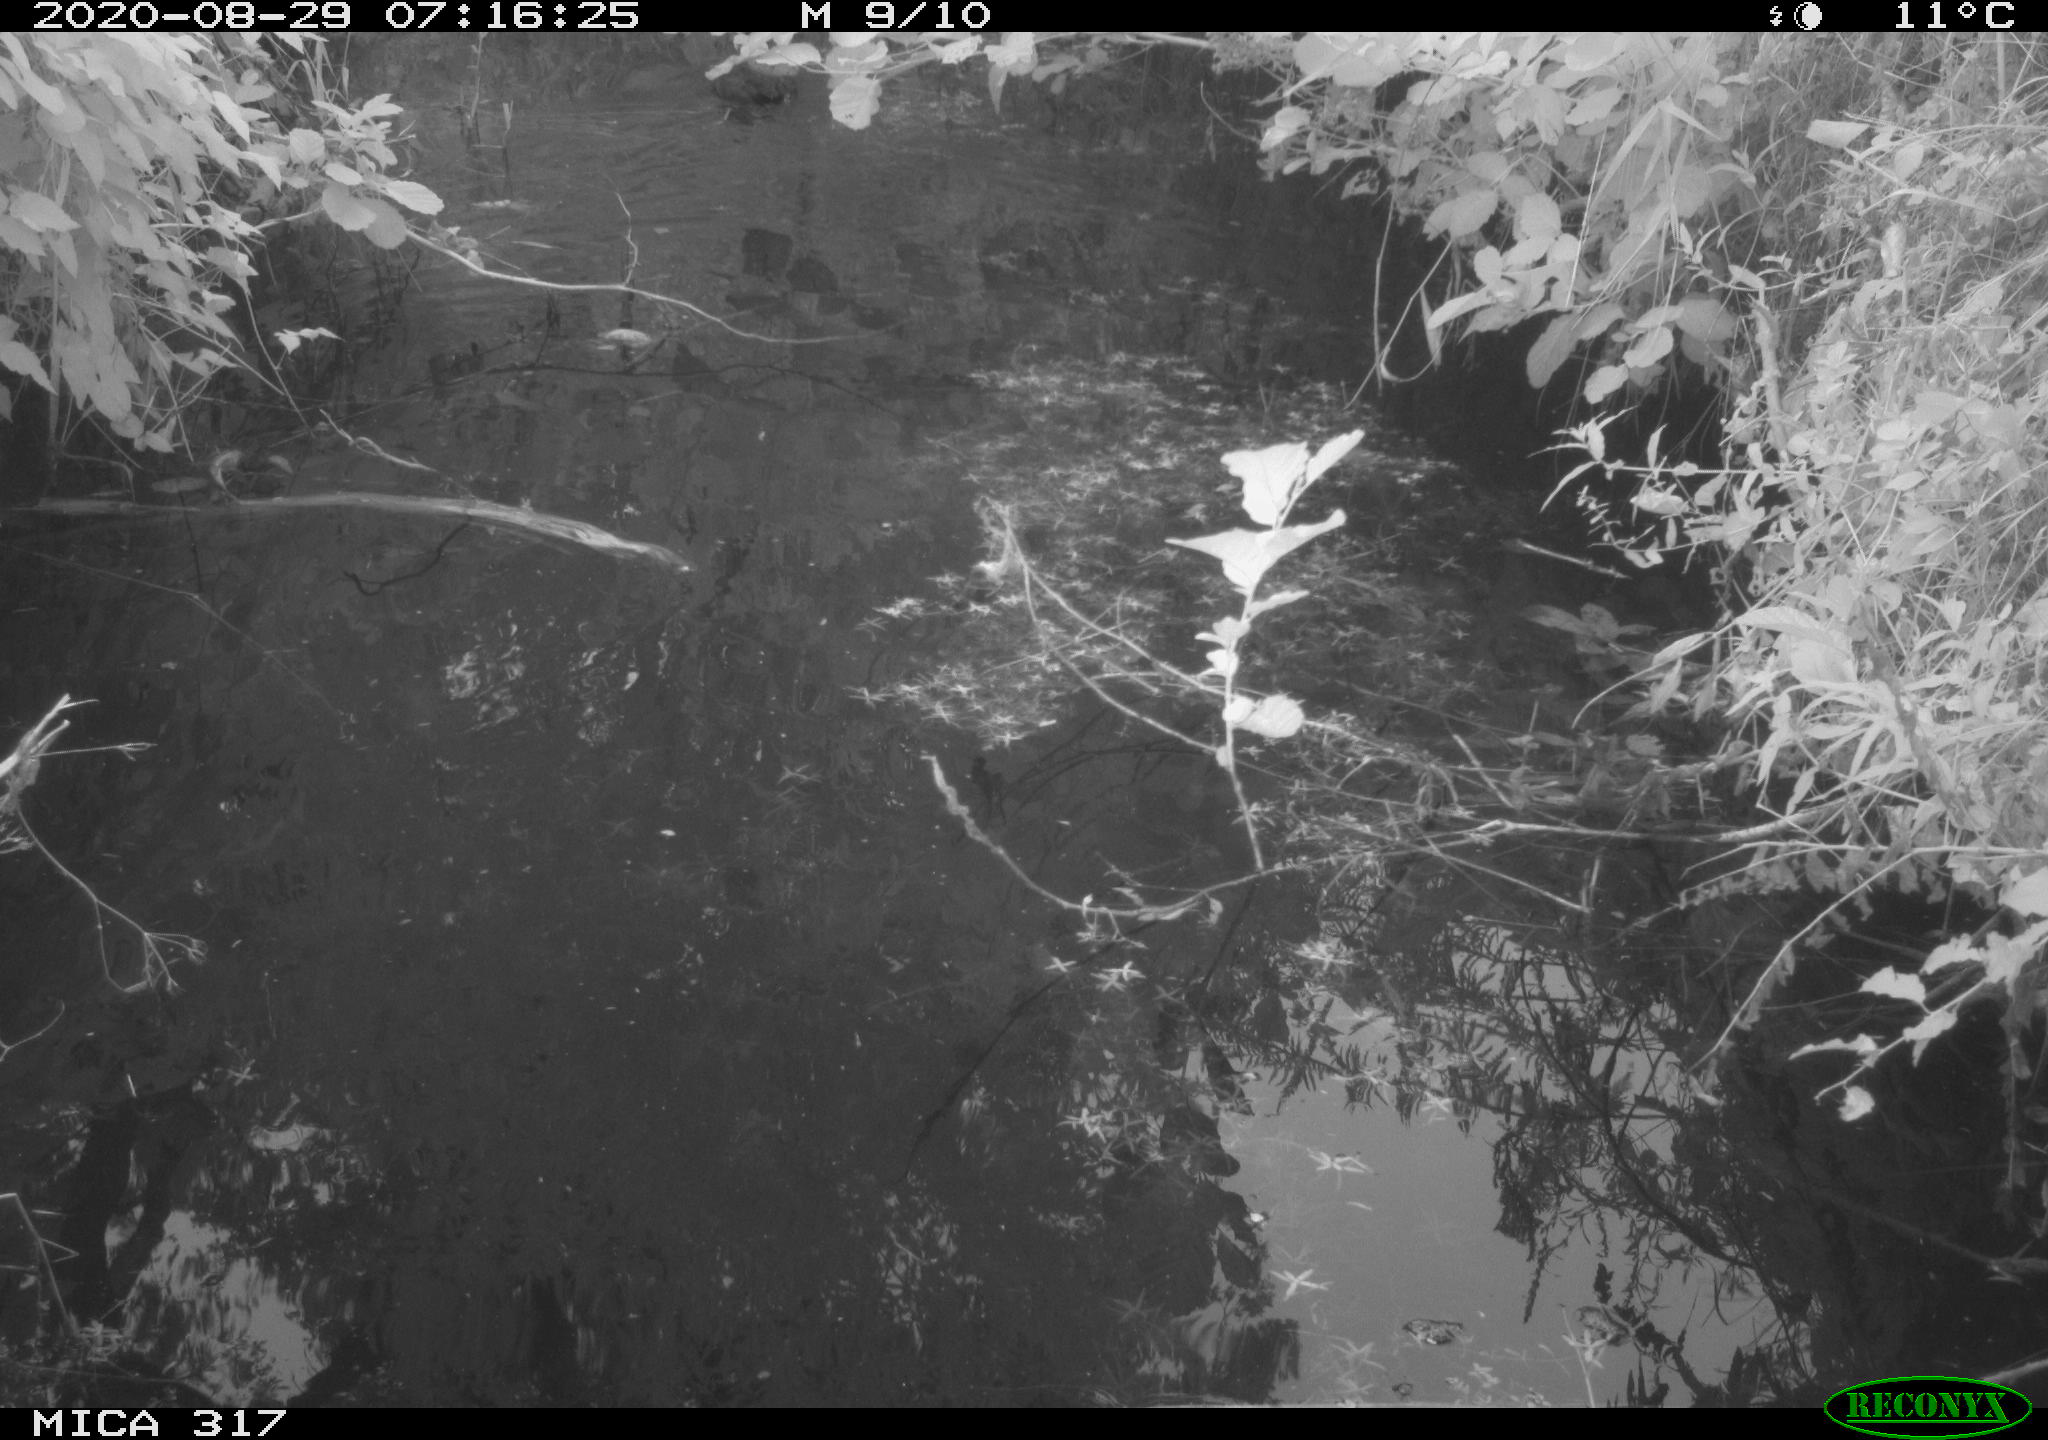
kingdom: Animalia
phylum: Chordata
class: Aves
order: Gruiformes
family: Rallidae
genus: Fulica
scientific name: Fulica atra
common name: Eurasian coot
